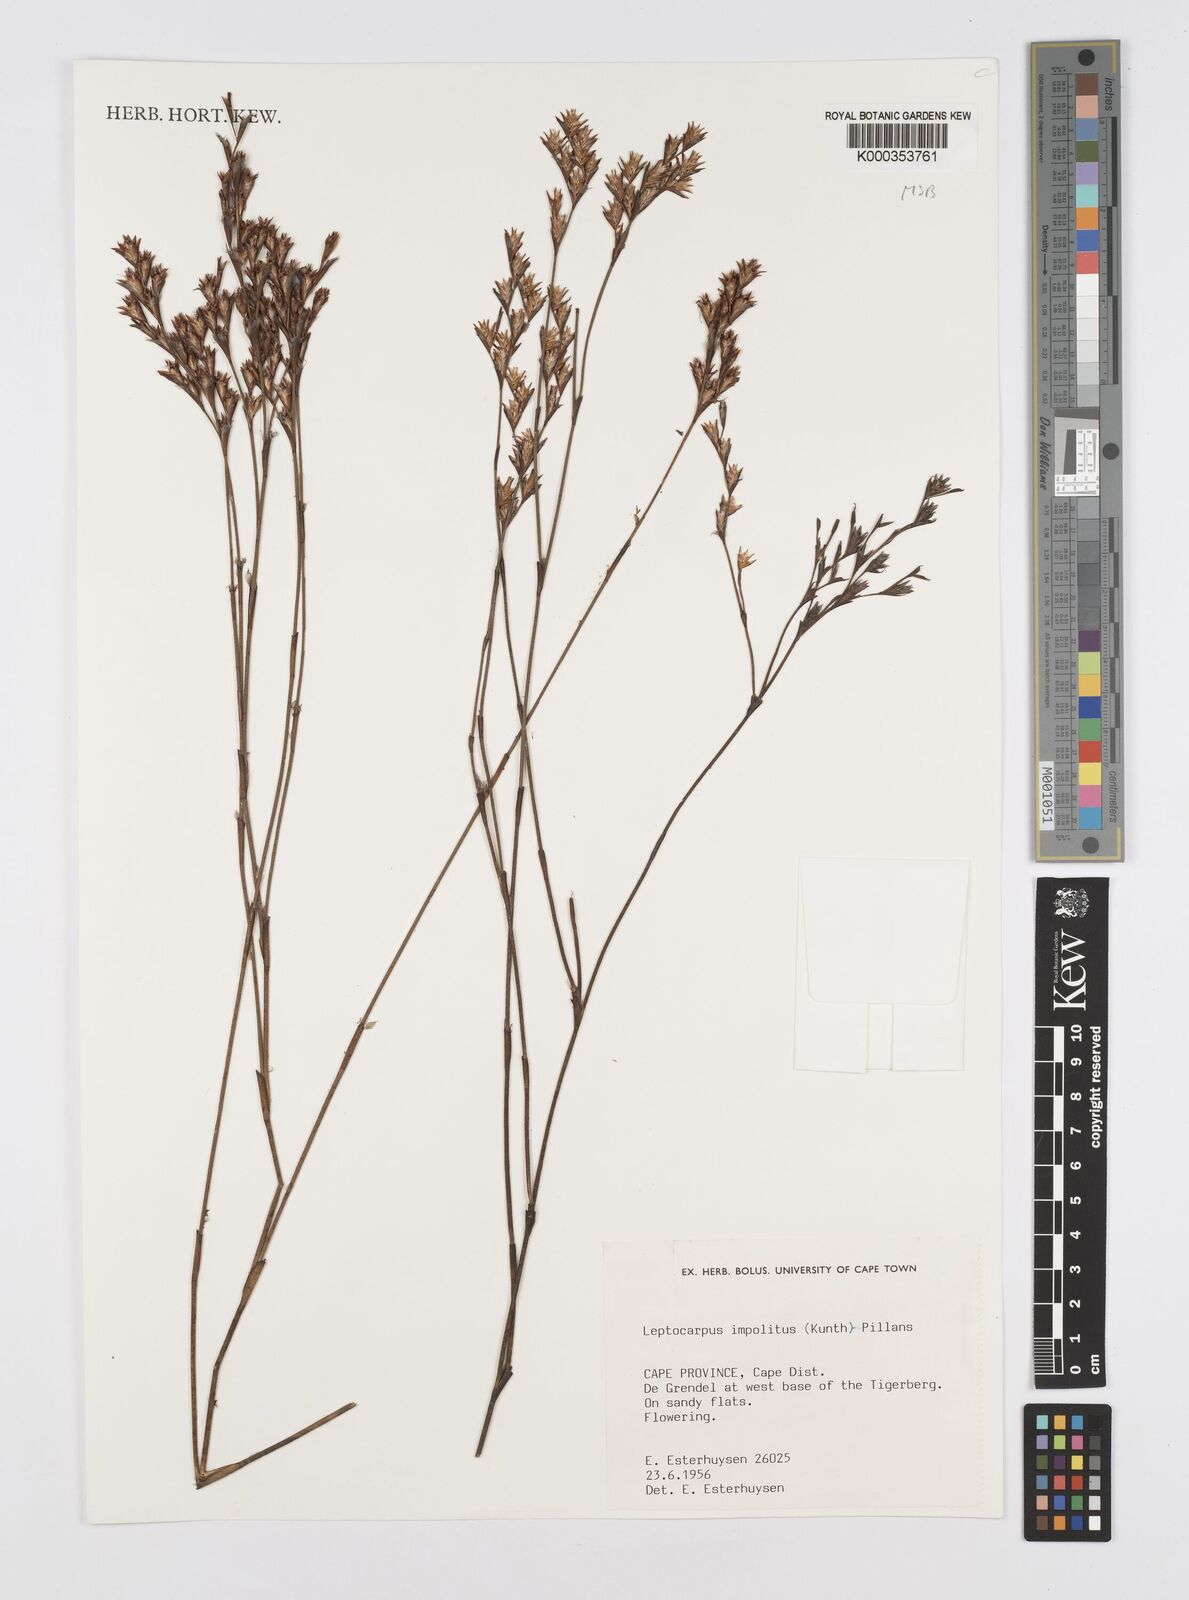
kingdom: Plantae
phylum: Tracheophyta
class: Liliopsida
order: Poales
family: Restionaceae
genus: Restio
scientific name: Restio impolitus
